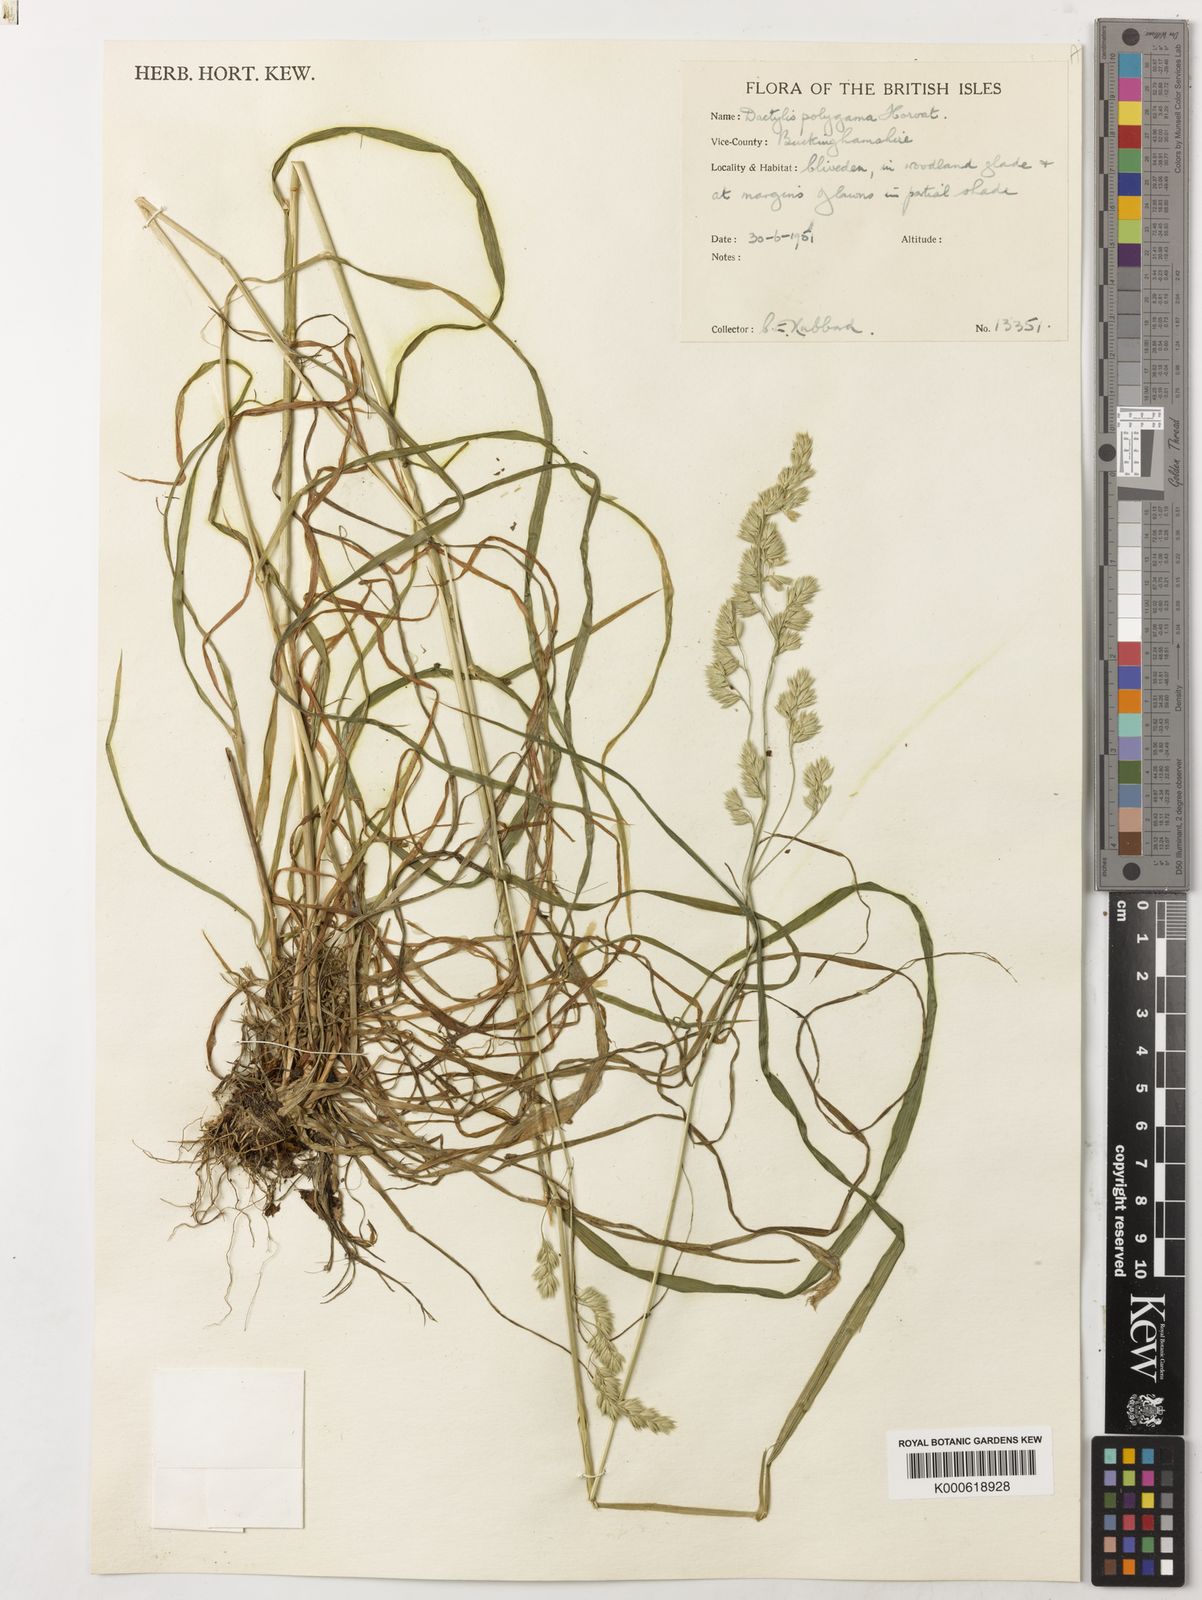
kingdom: Plantae
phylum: Tracheophyta
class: Liliopsida
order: Poales
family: Poaceae
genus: Dactylis
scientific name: Dactylis glomerata
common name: Orchardgrass
